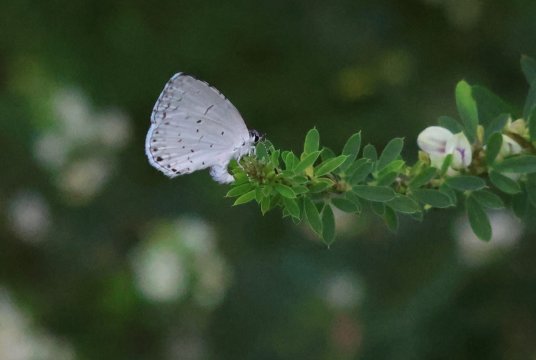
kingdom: Animalia
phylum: Arthropoda
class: Insecta
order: Lepidoptera
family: Lycaenidae
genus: Cyaniris
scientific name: Cyaniris neglecta
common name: Summer Azure
